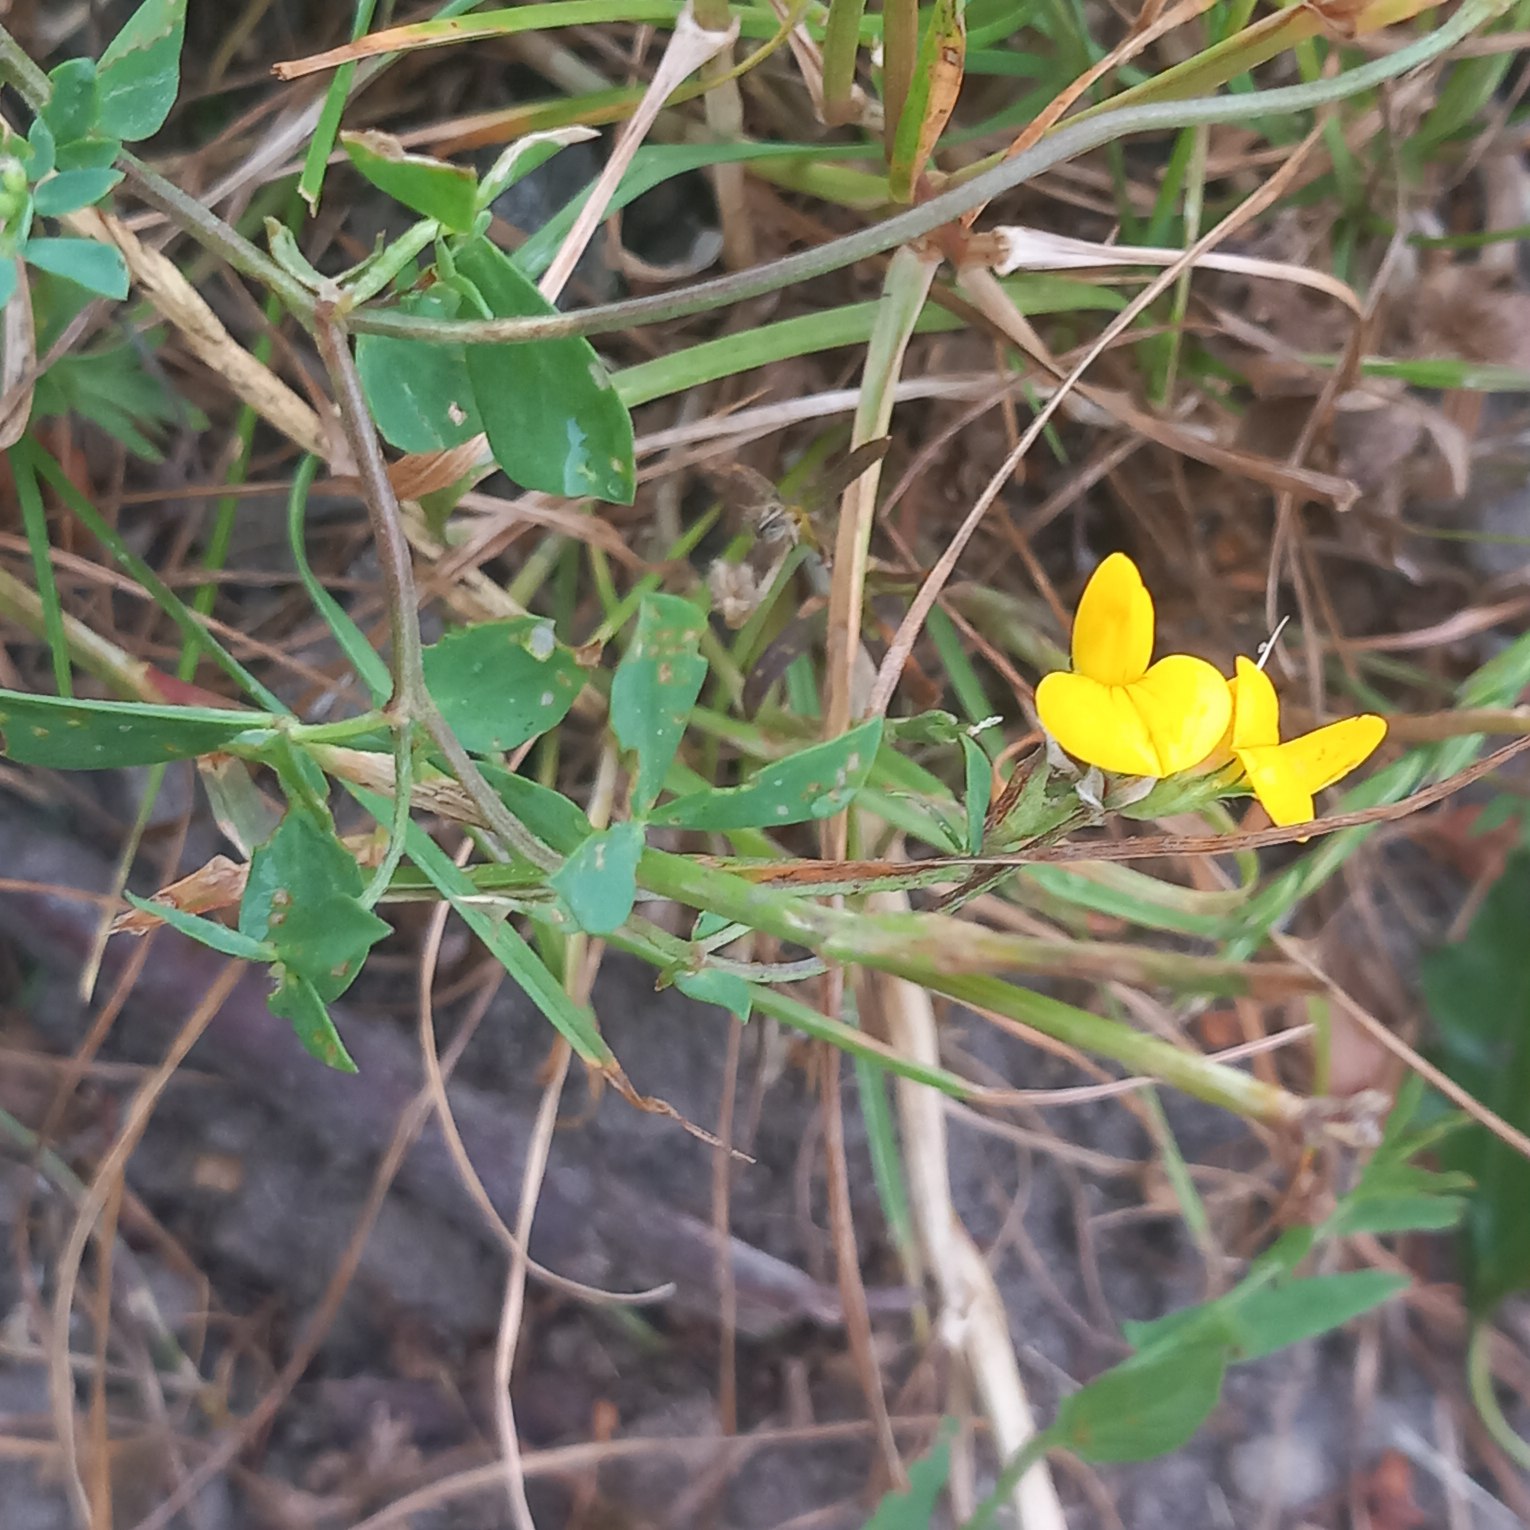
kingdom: Plantae
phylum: Tracheophyta
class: Magnoliopsida
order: Fabales
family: Fabaceae
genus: Lotus
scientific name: Lotus corniculatus
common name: Almindelig kællingetand
